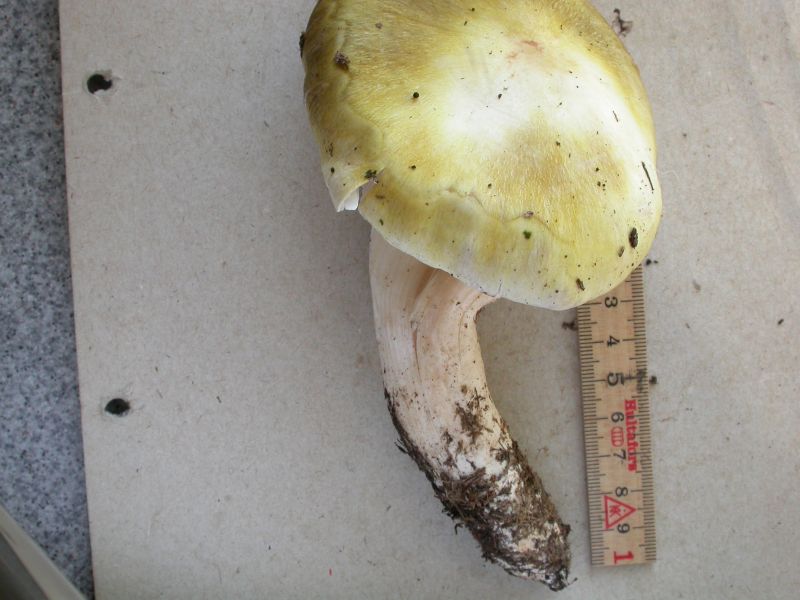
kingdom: Fungi
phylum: Basidiomycota
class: Agaricomycetes
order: Agaricales
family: Tricholomataceae
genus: Tricholoma
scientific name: Tricholoma arvernense
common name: kantet ridderhat
